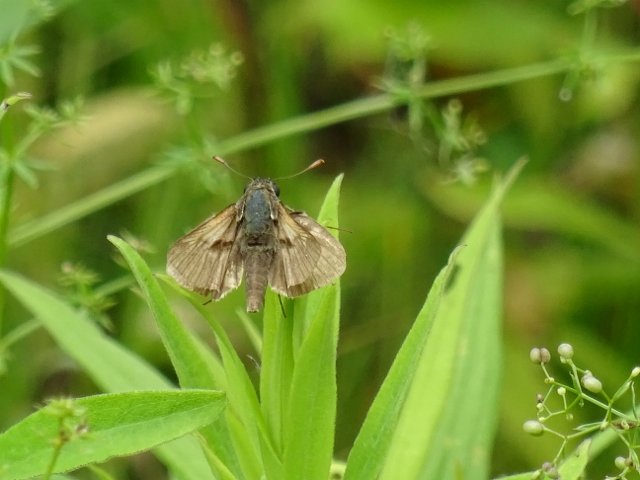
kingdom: Animalia
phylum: Arthropoda
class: Insecta
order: Lepidoptera
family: Hesperiidae
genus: Polites
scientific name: Polites
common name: Long Dash Skipper
